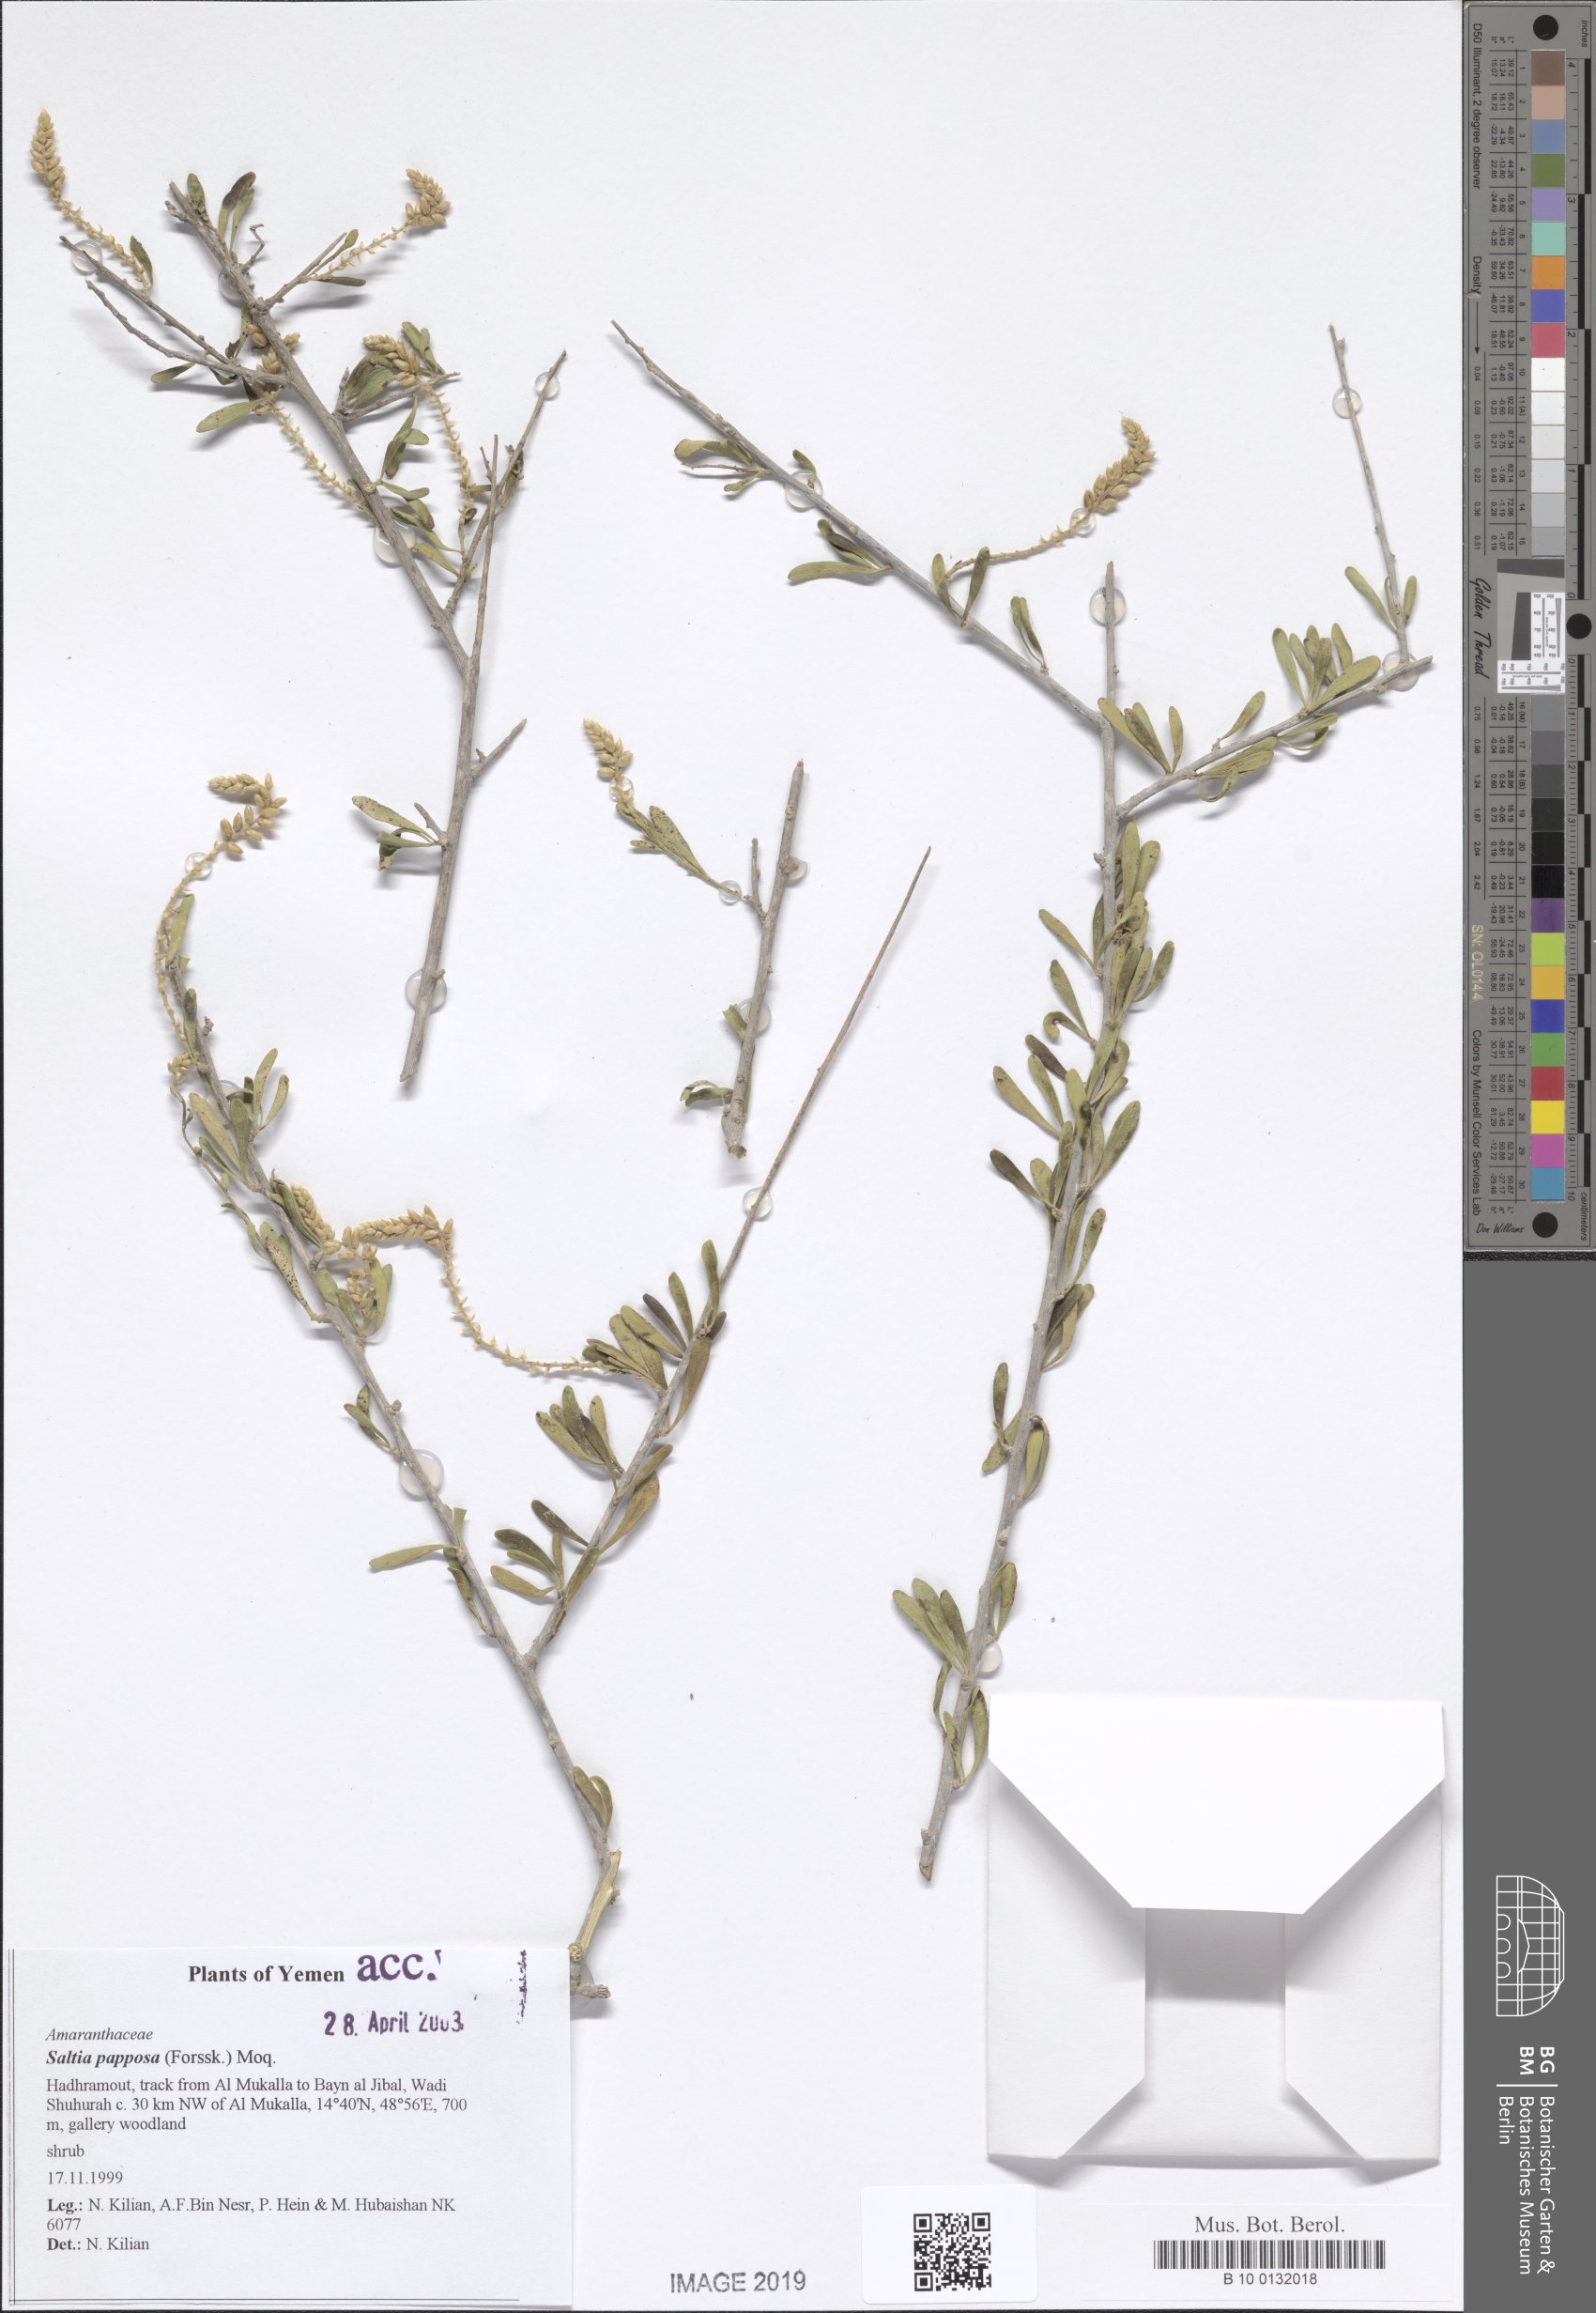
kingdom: Plantae
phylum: Tracheophyta
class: Magnoliopsida
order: Caryophyllales
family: Amaranthaceae
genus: Saltia
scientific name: Saltia papposa
